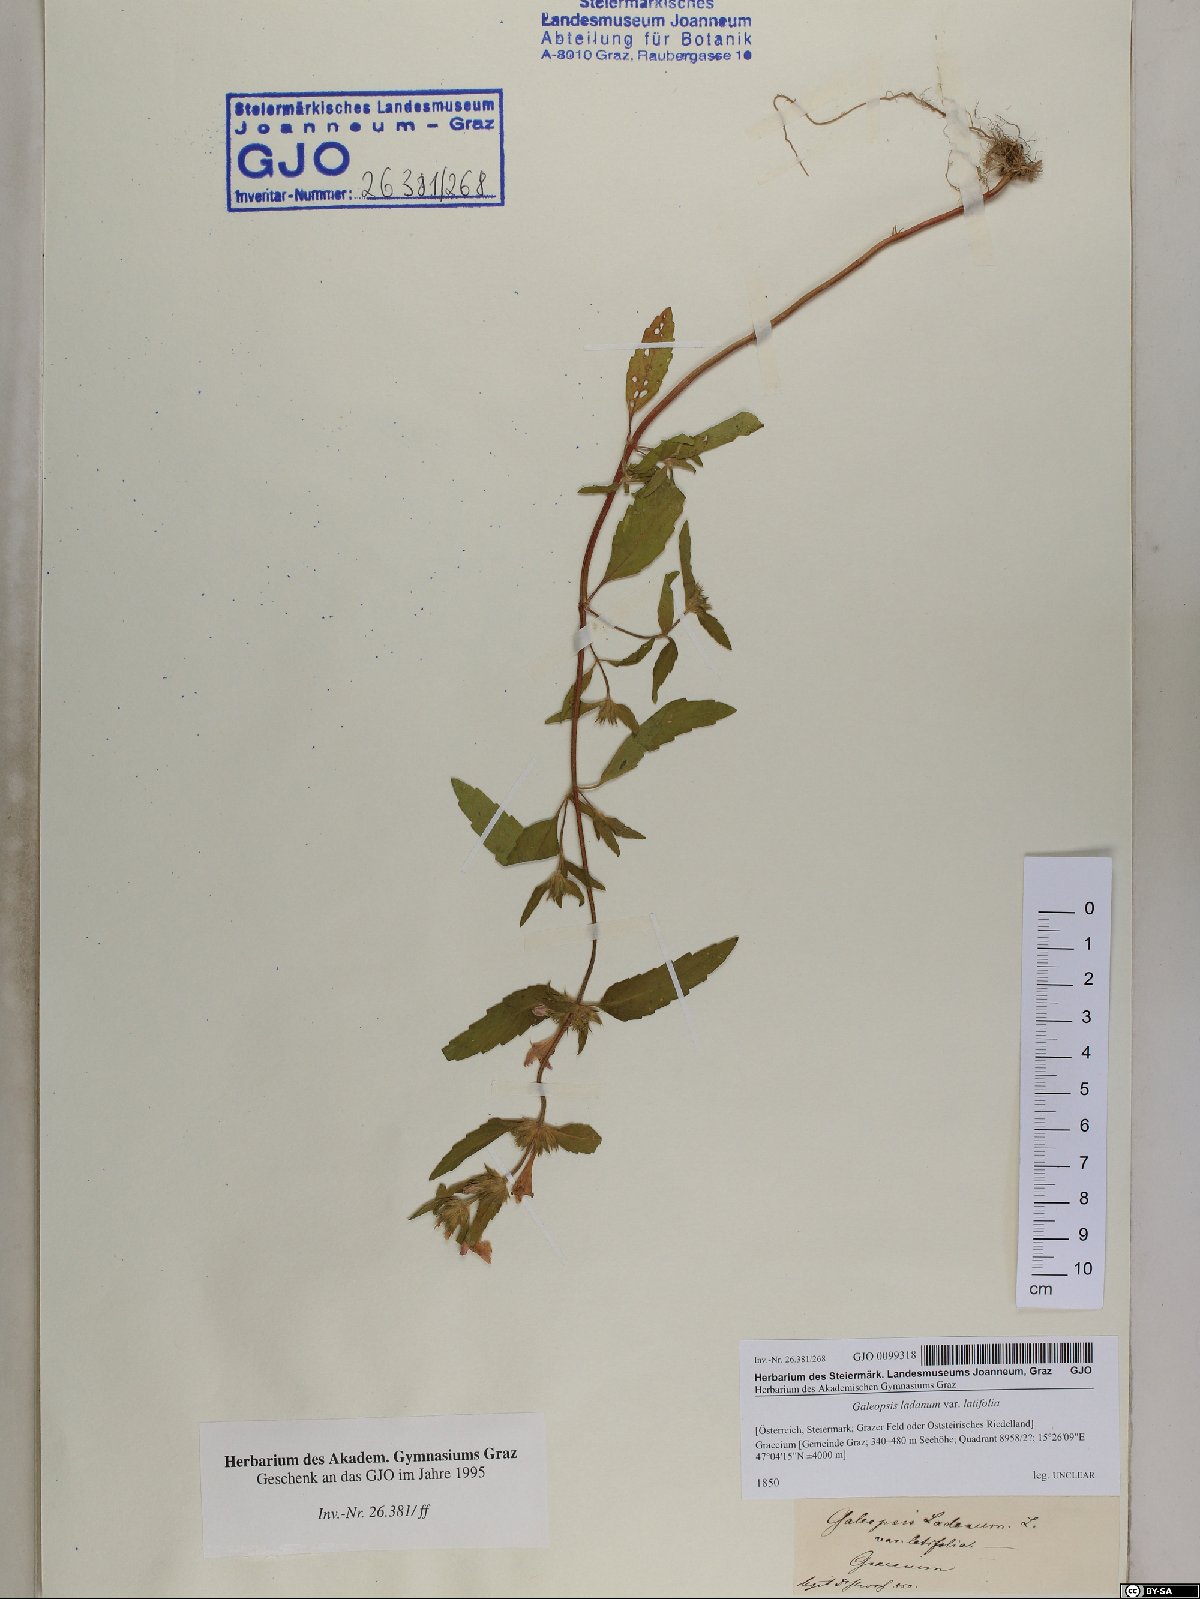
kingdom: Plantae
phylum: Tracheophyta
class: Magnoliopsida
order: Lamiales
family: Lamiaceae
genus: Galeopsis
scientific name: Galeopsis ladanum
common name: Broad-leaved hemp-nettle
